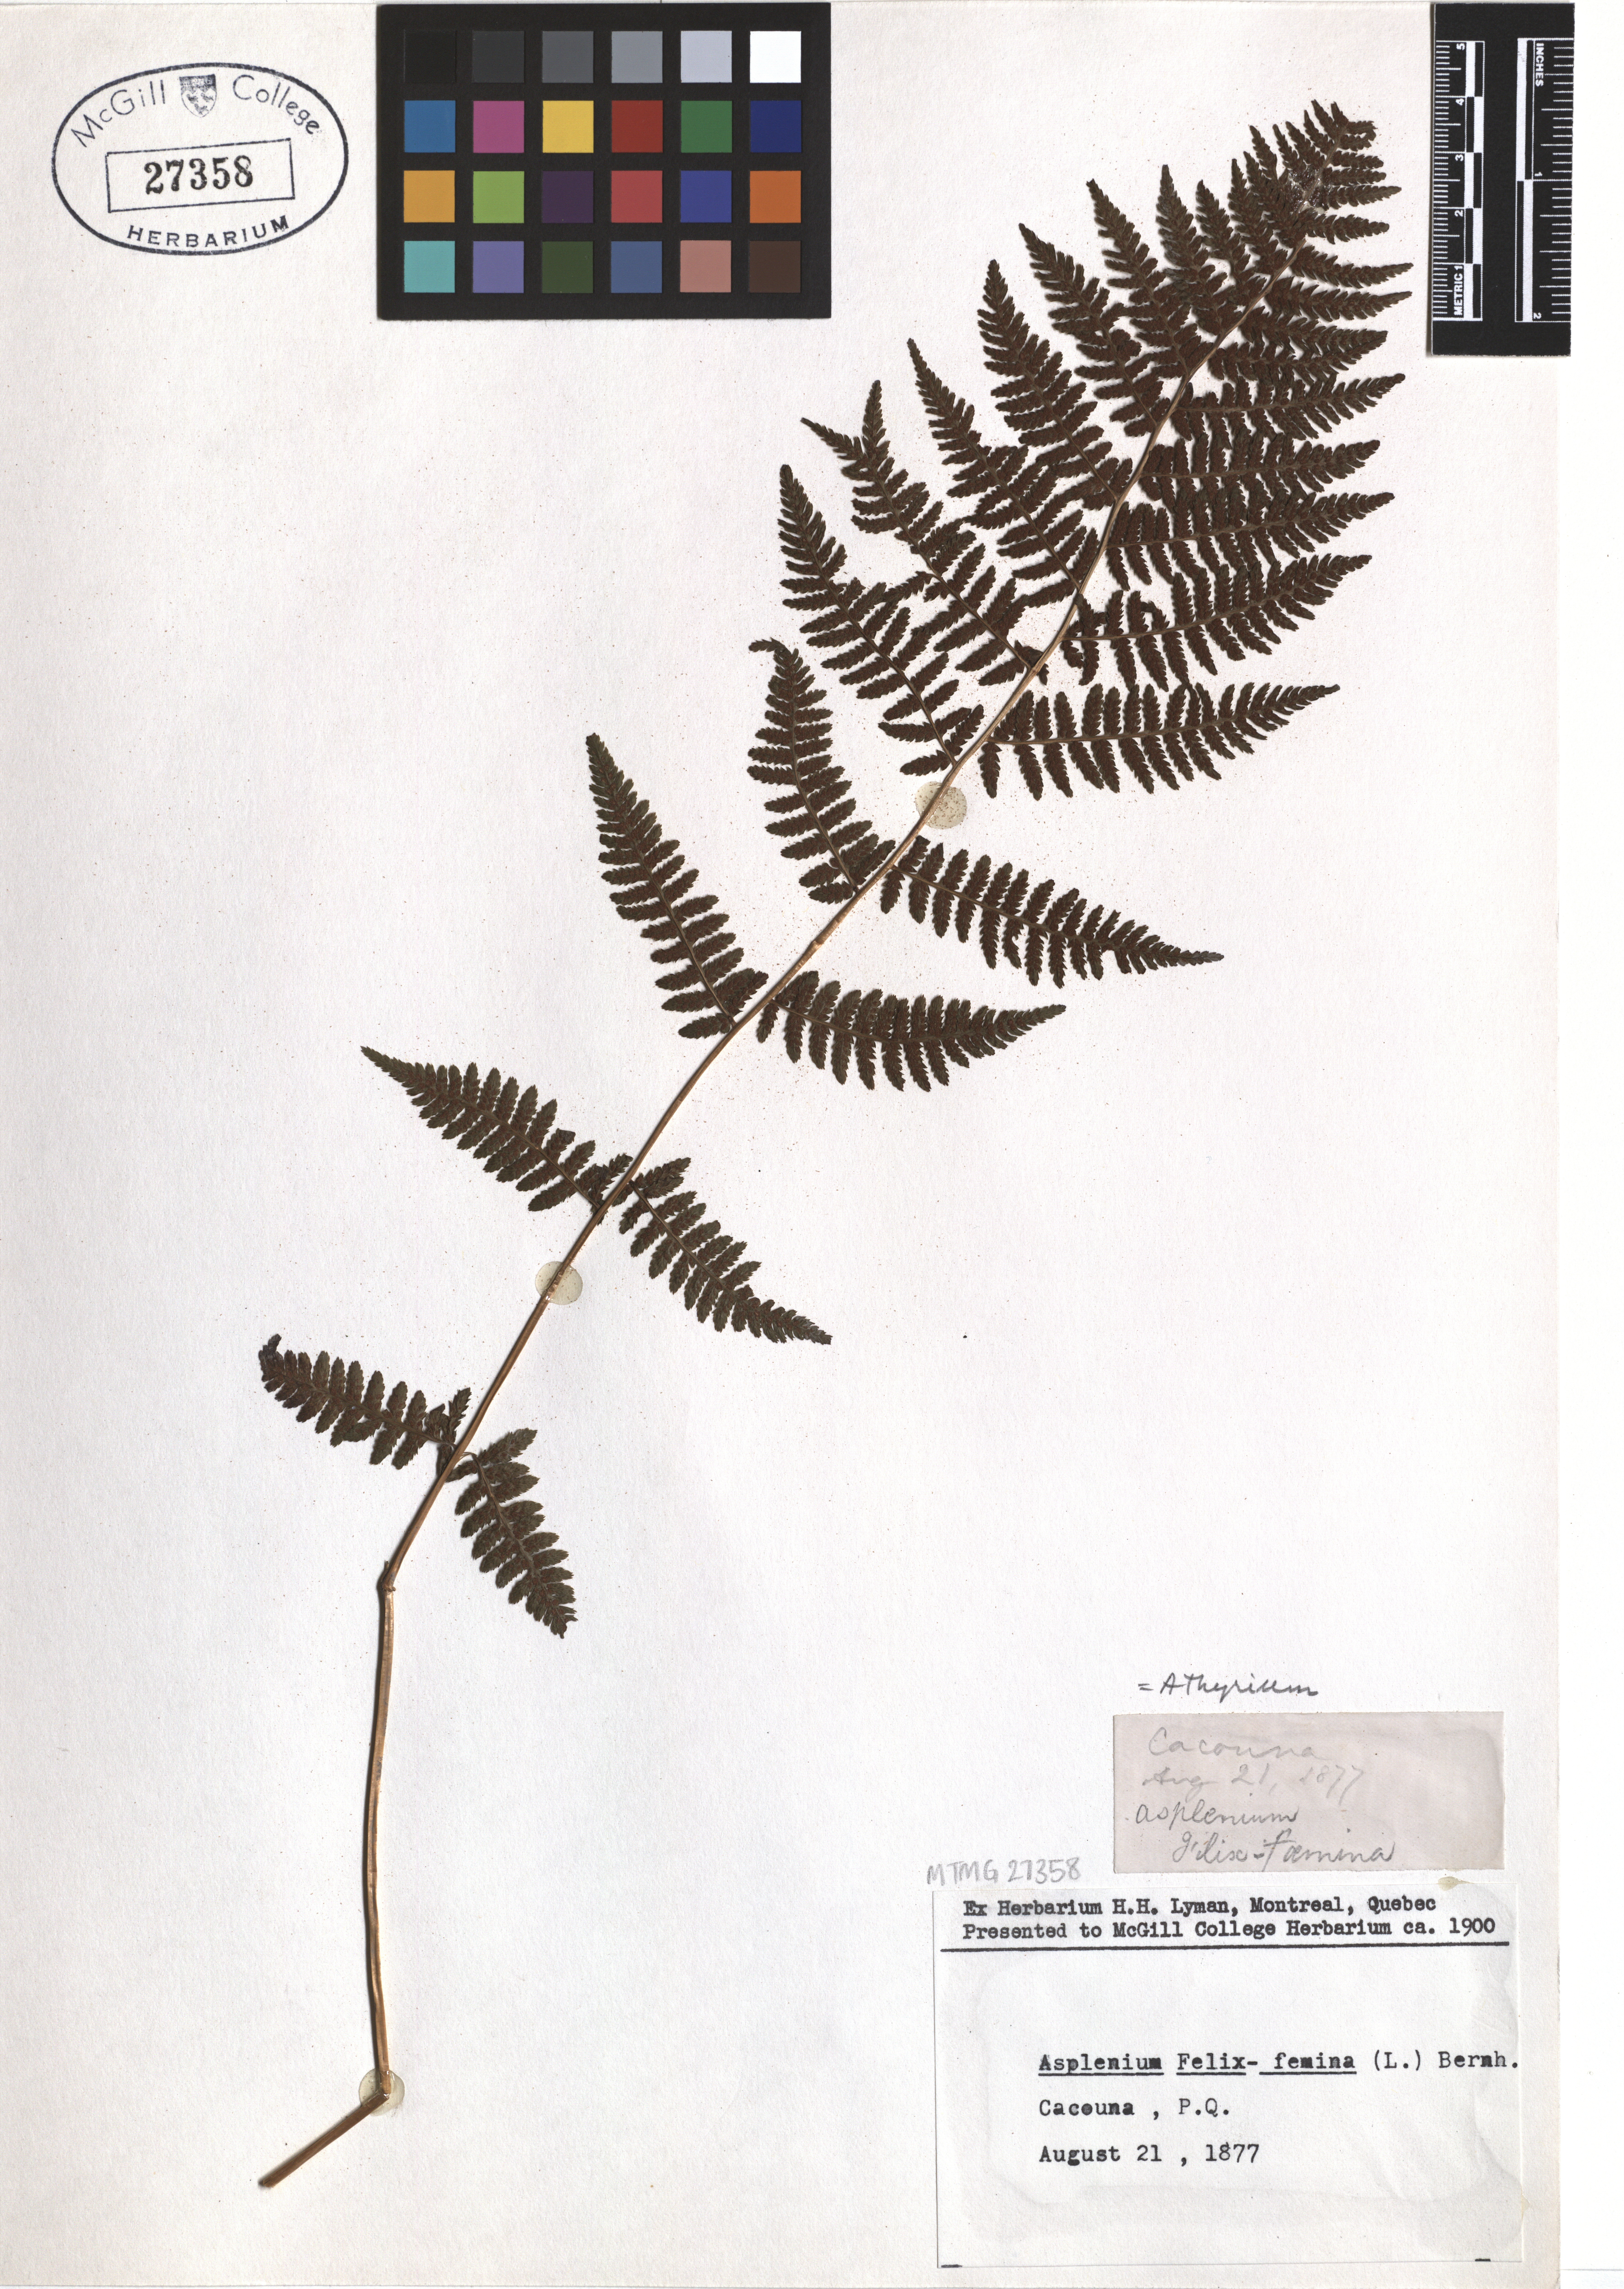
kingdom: Plantae
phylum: Tracheophyta
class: Polypodiopsida
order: Polypodiales
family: Athyriaceae
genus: Athyrium
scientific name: Athyrium filix-femina
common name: Lady fern
